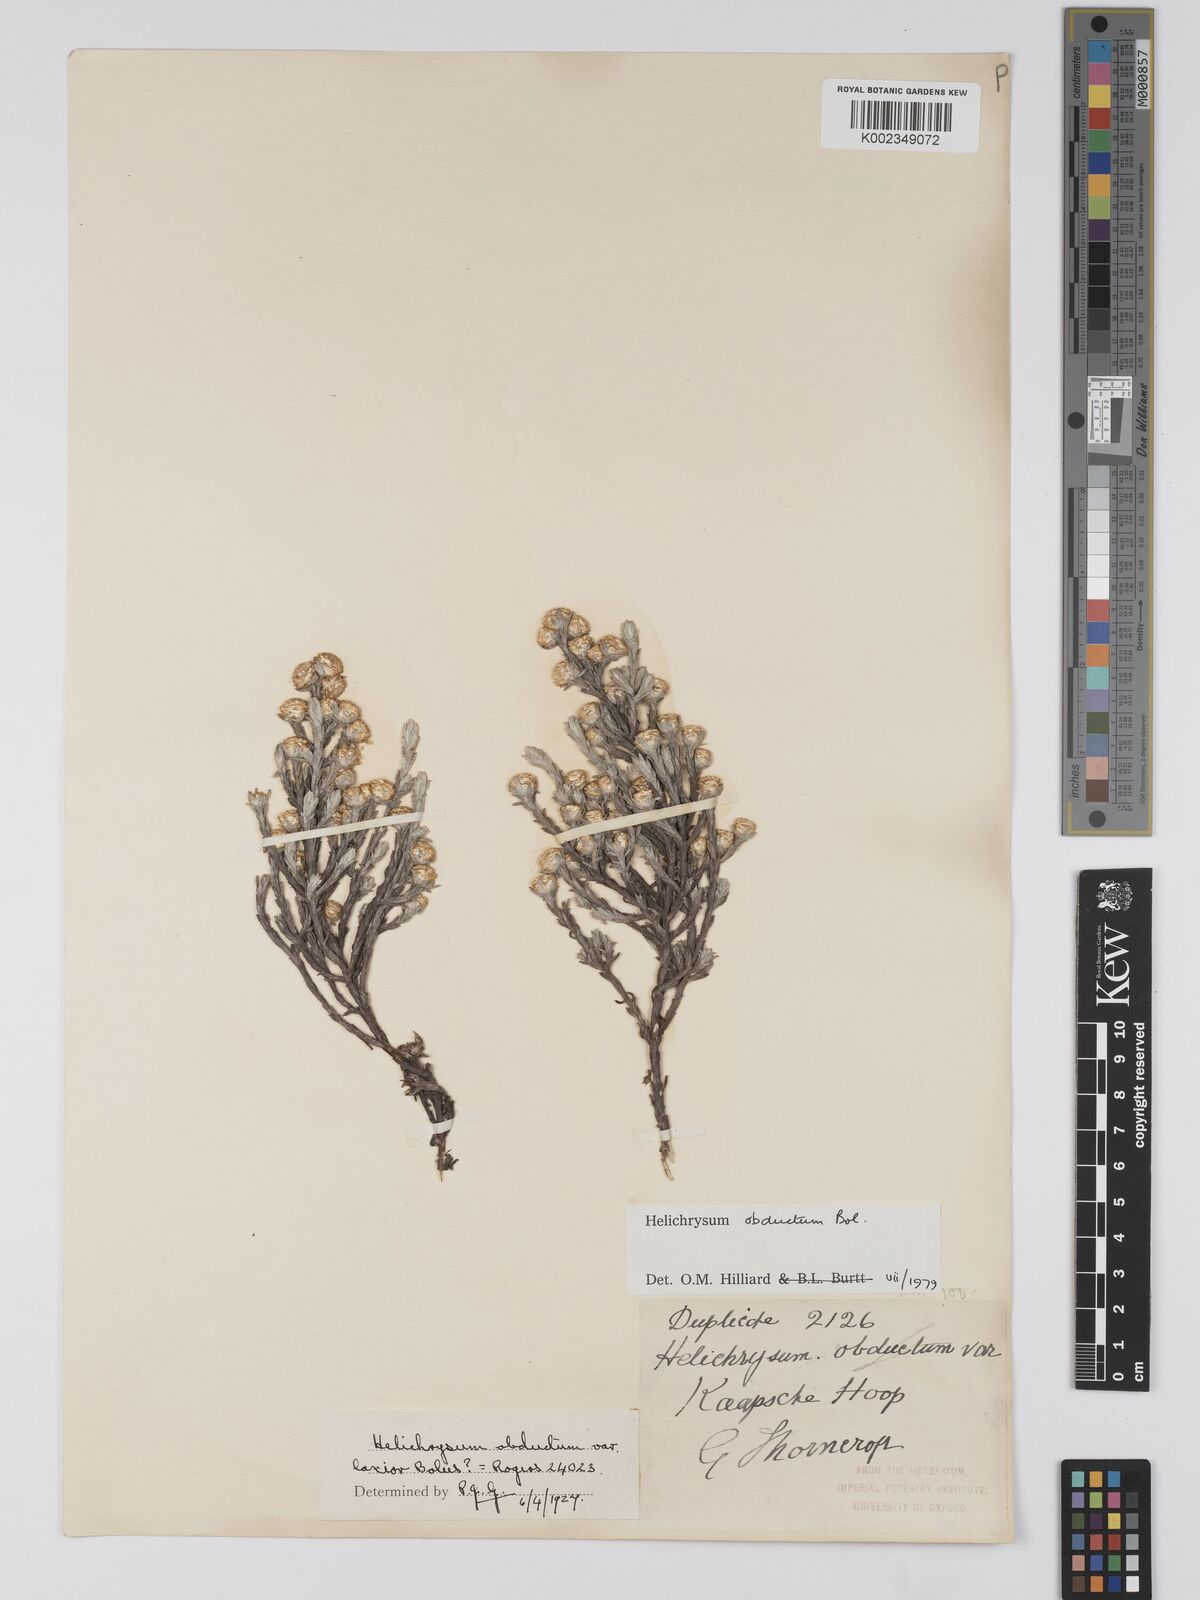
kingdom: Plantae
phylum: Tracheophyta
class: Magnoliopsida
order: Asterales
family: Asteraceae
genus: Helichrysum
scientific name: Helichrysum obductum
